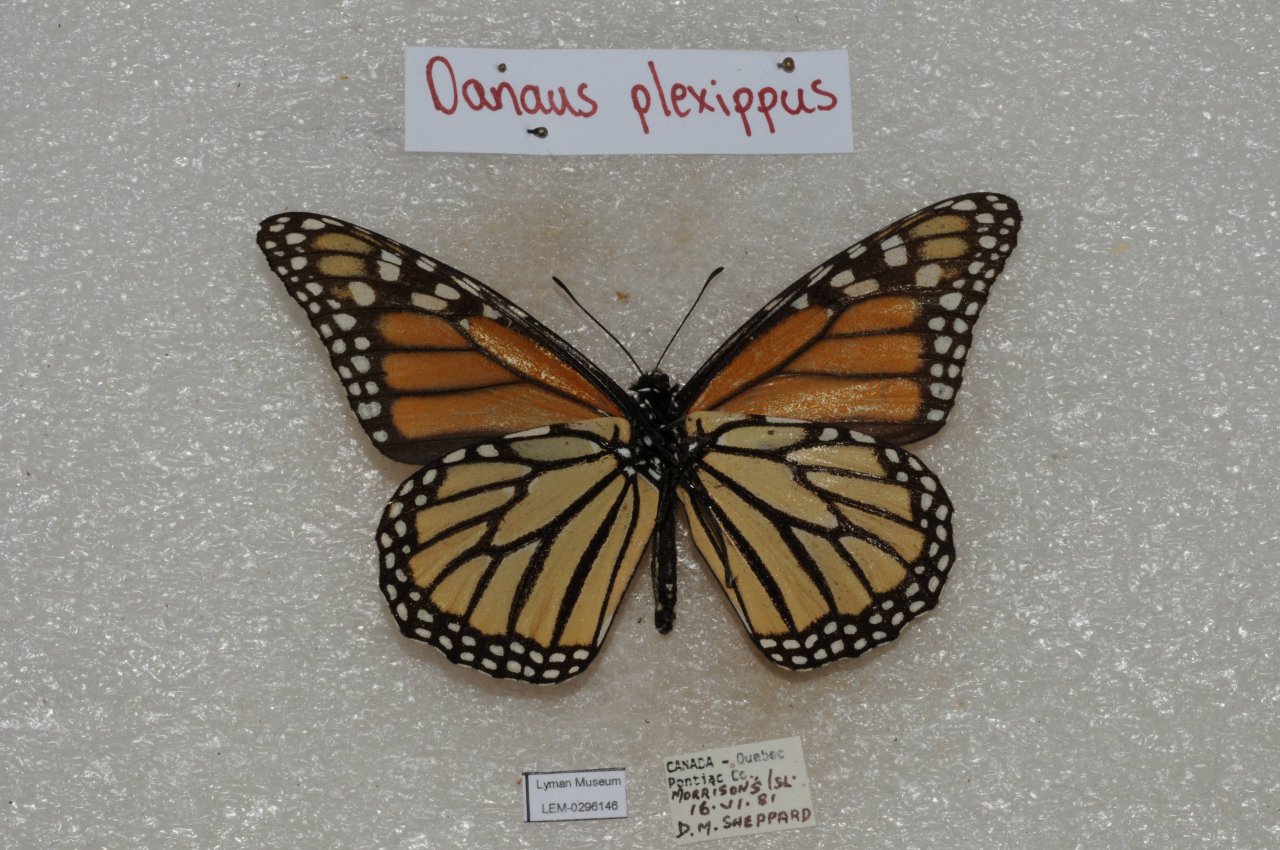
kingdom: Animalia
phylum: Arthropoda
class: Insecta
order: Lepidoptera
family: Nymphalidae
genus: Danaus
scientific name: Danaus plexippus
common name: Monarch
